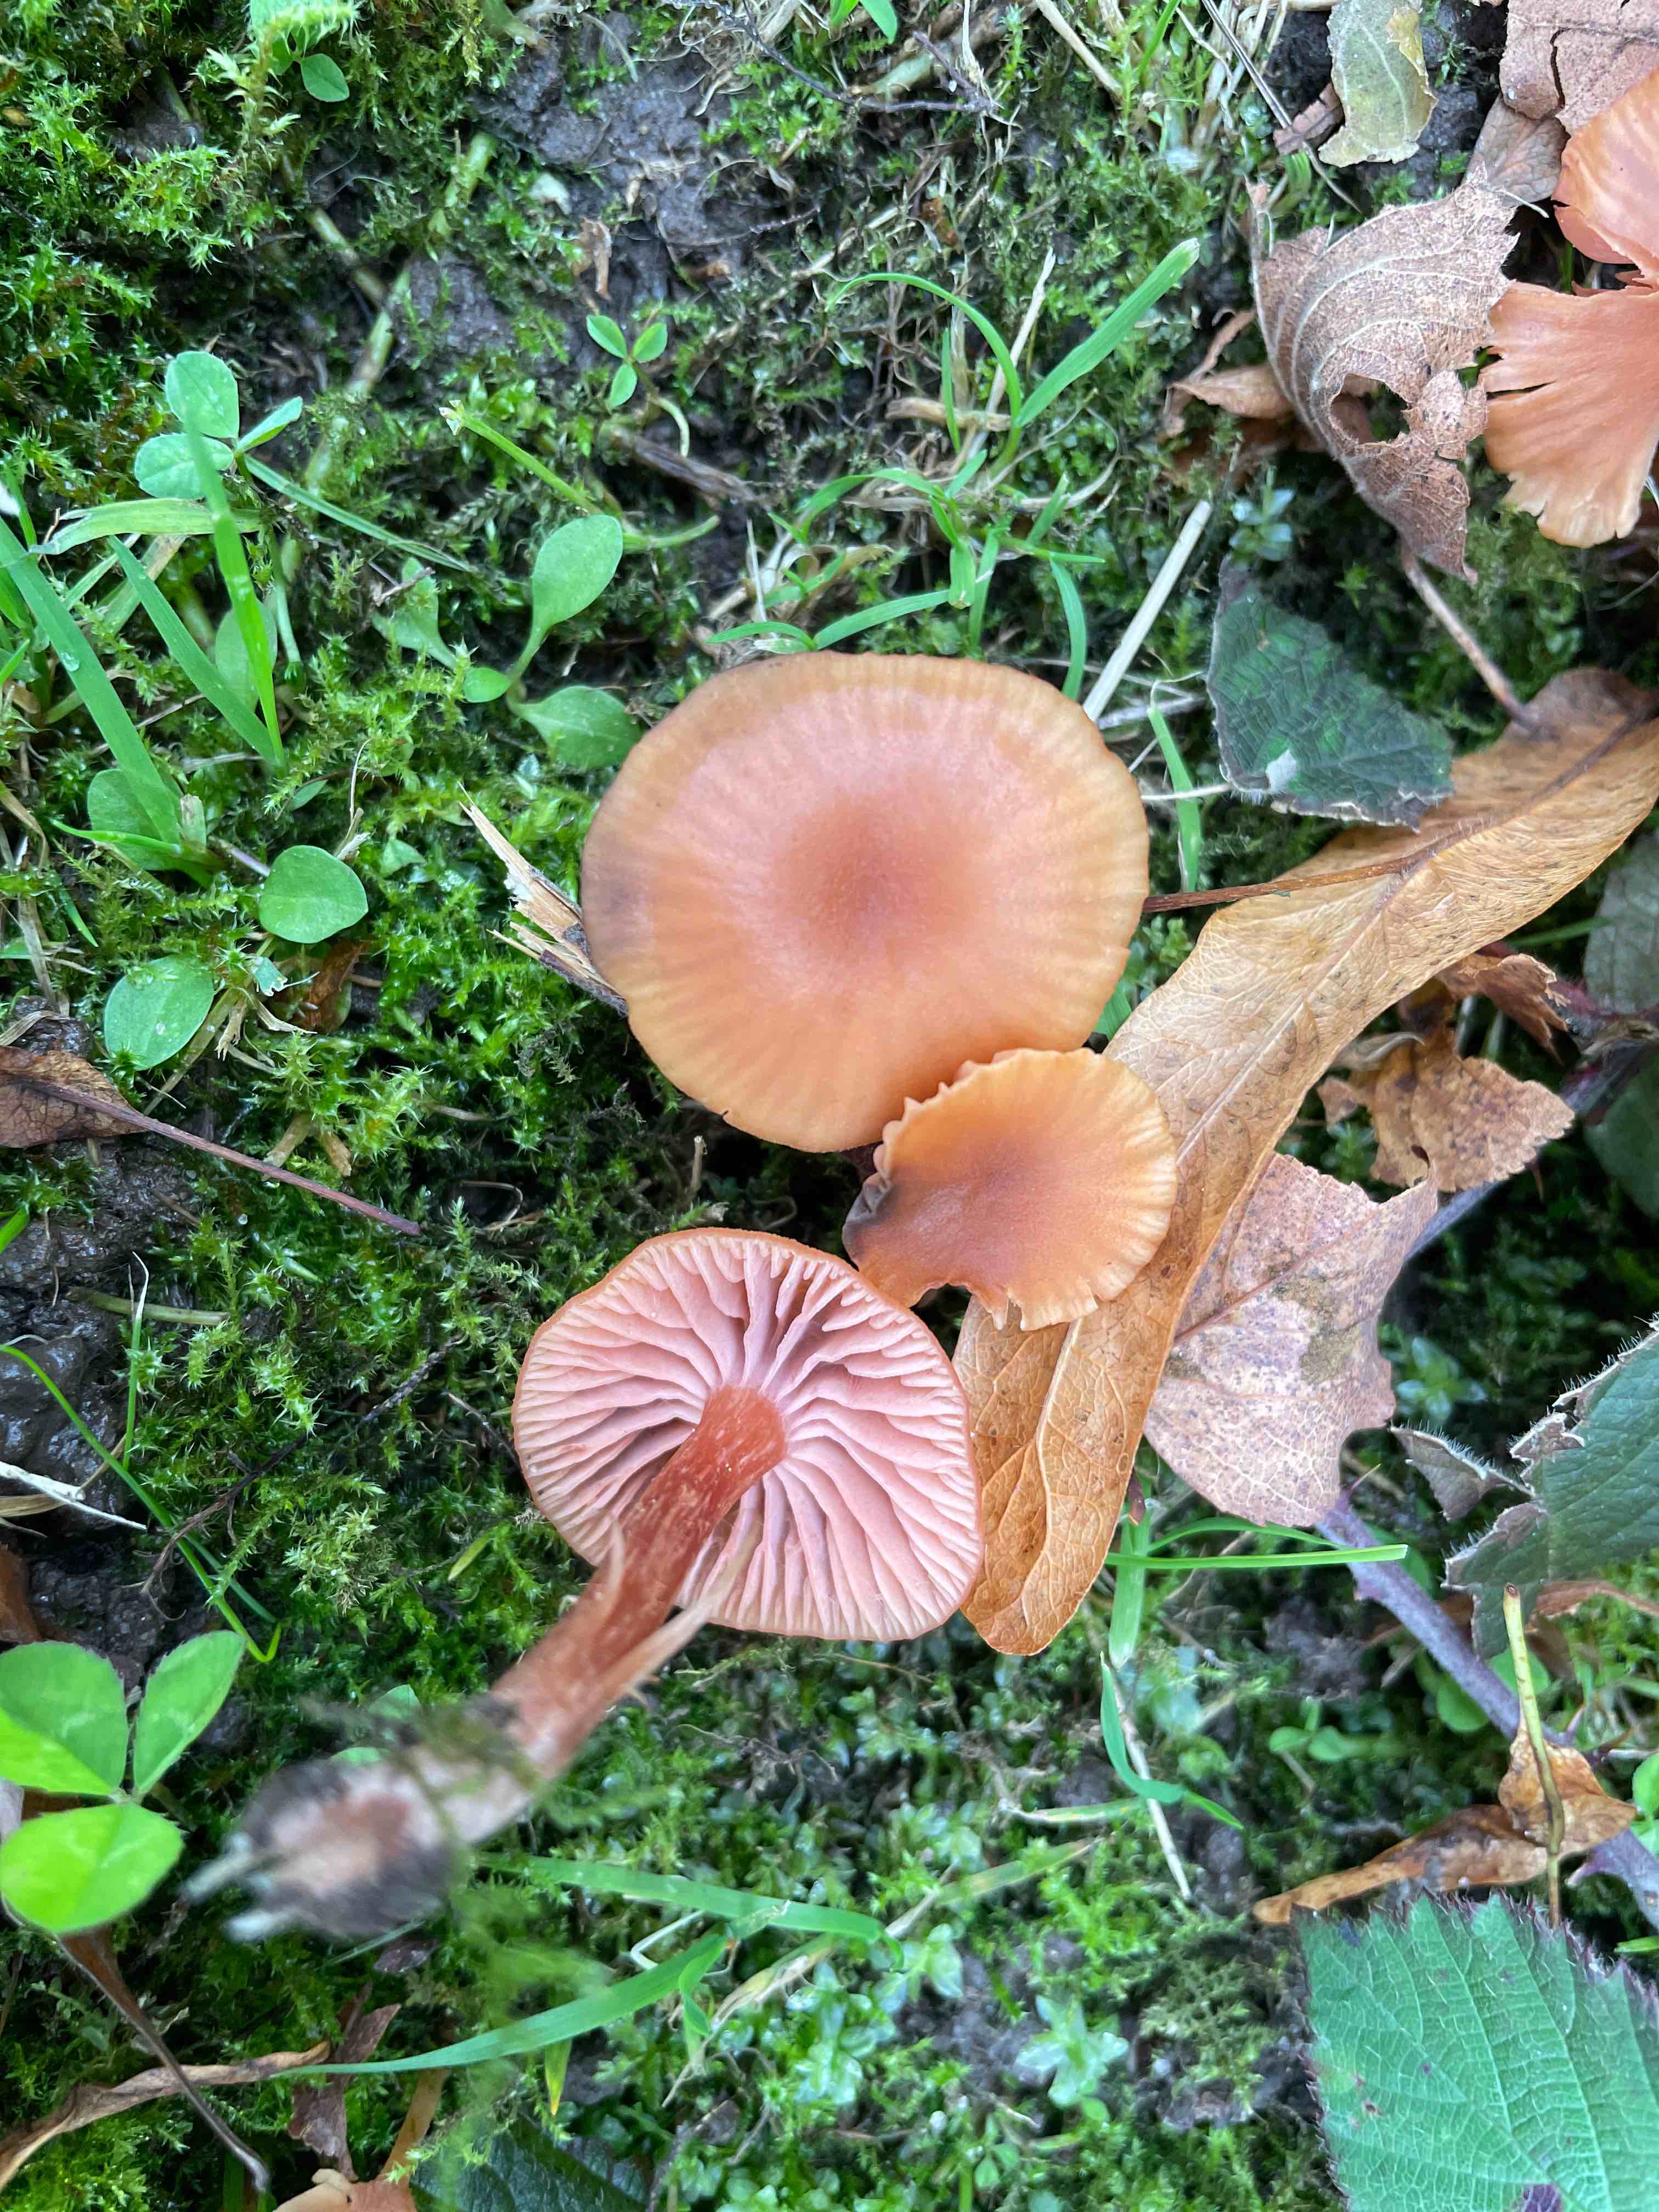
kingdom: Fungi
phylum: Basidiomycota
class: Agaricomycetes
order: Agaricales
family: Hydnangiaceae
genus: Laccaria
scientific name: Laccaria laccata
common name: rød ametysthat
